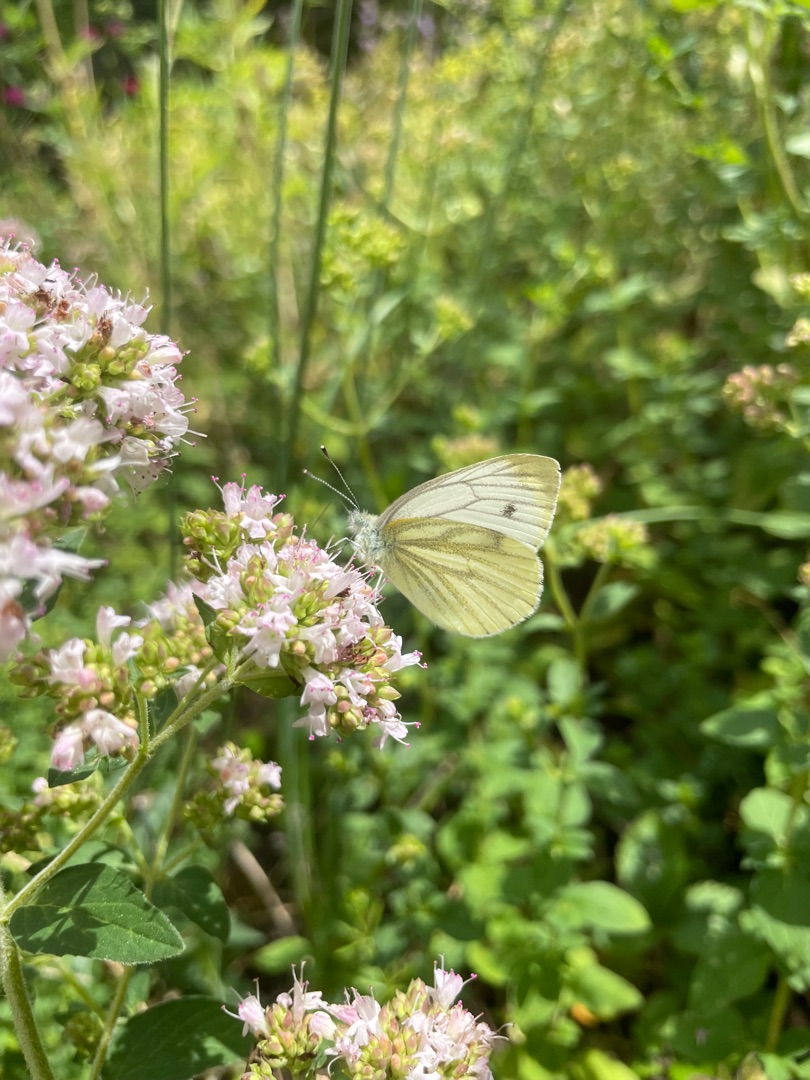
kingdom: Animalia
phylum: Arthropoda
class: Insecta
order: Lepidoptera
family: Pieridae
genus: Pieris
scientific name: Pieris napi
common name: Grønåret kålsommerfugl
